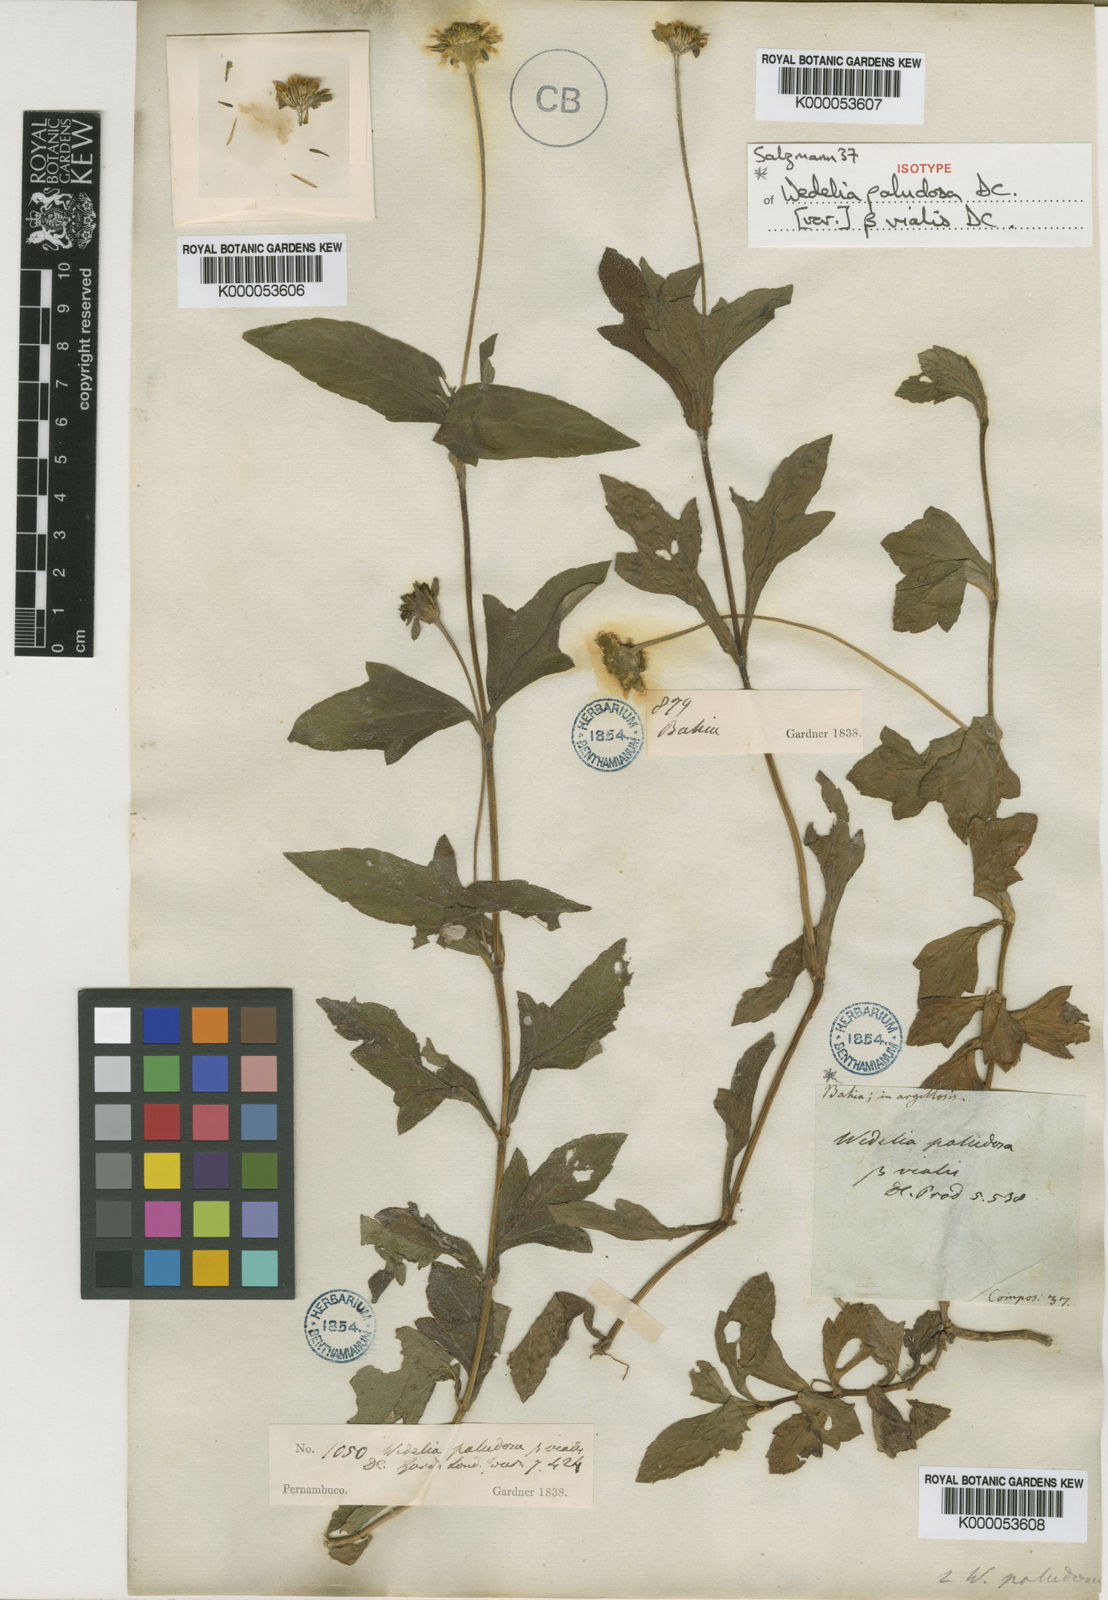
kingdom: Plantae
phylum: Tracheophyta
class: Magnoliopsida
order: Asterales
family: Asteraceae
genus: Sphagneticola
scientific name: Sphagneticola trilobata
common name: Bay biscayne creeping-oxeye
